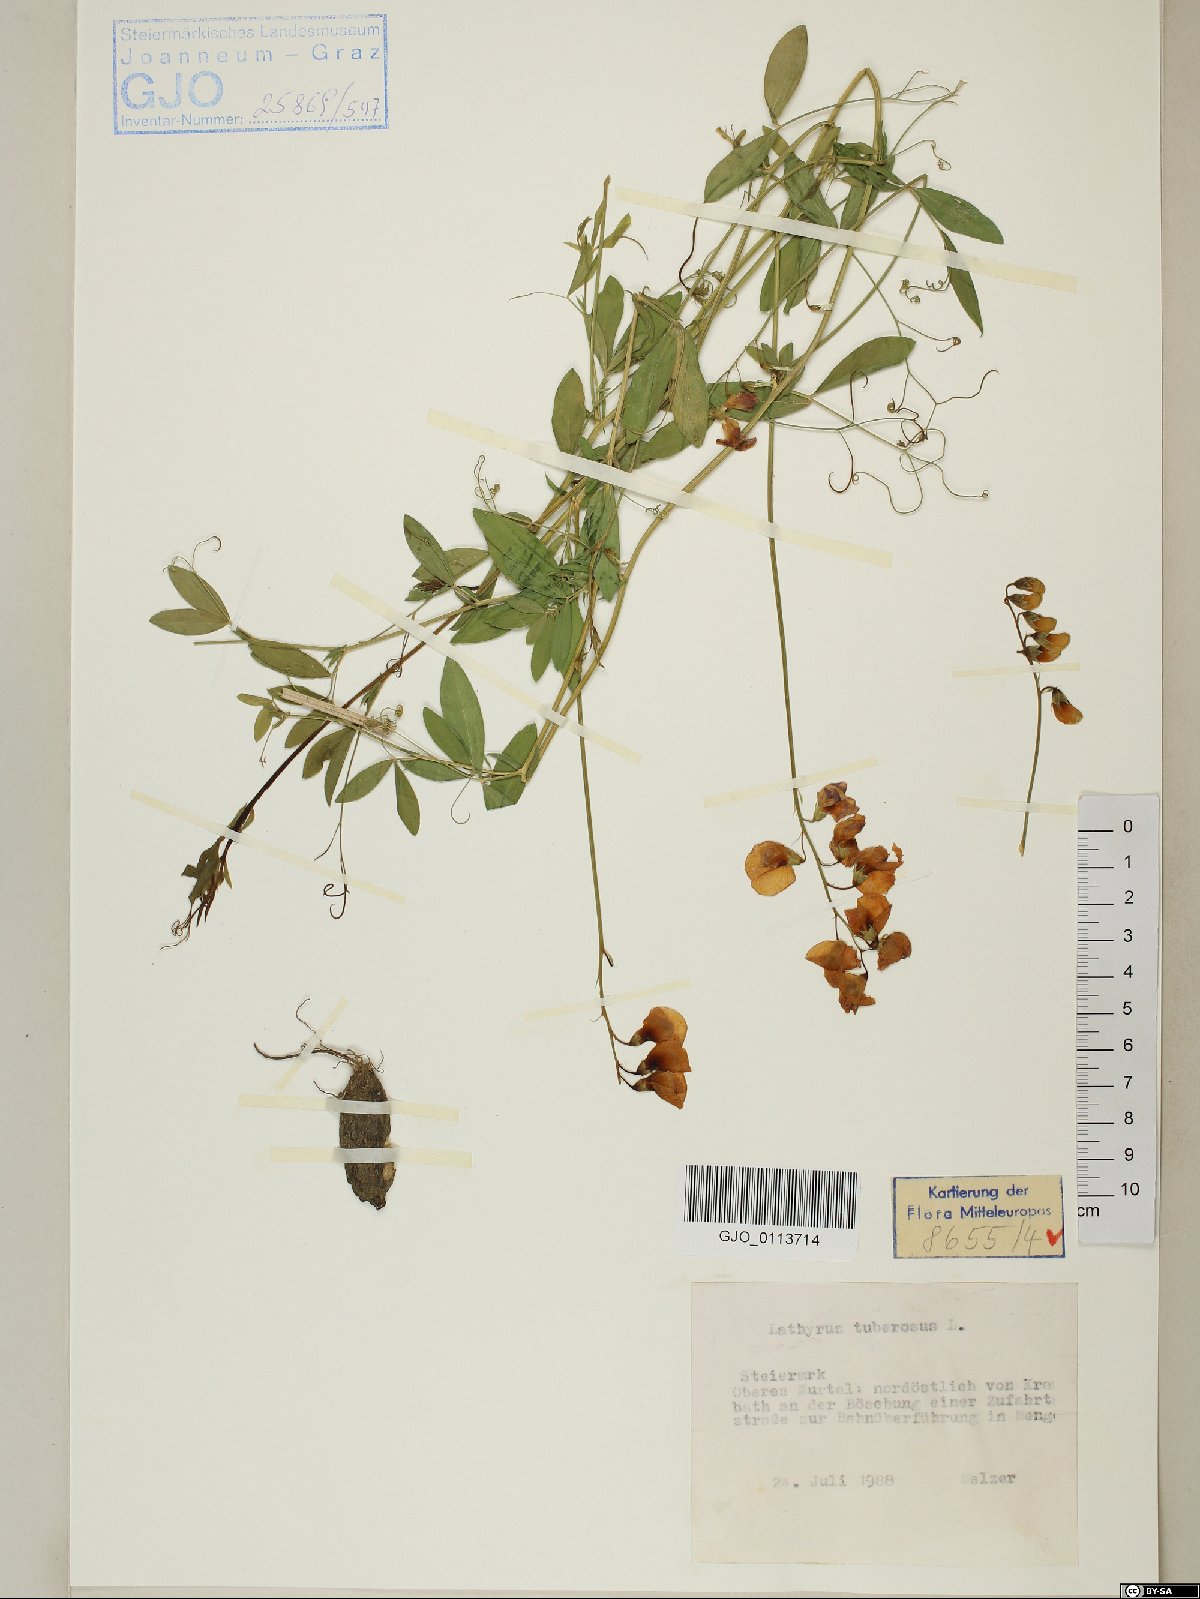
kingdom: Plantae
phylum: Tracheophyta
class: Magnoliopsida
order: Fabales
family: Fabaceae
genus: Lathyrus
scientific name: Lathyrus tuberosus
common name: Tuberous pea
